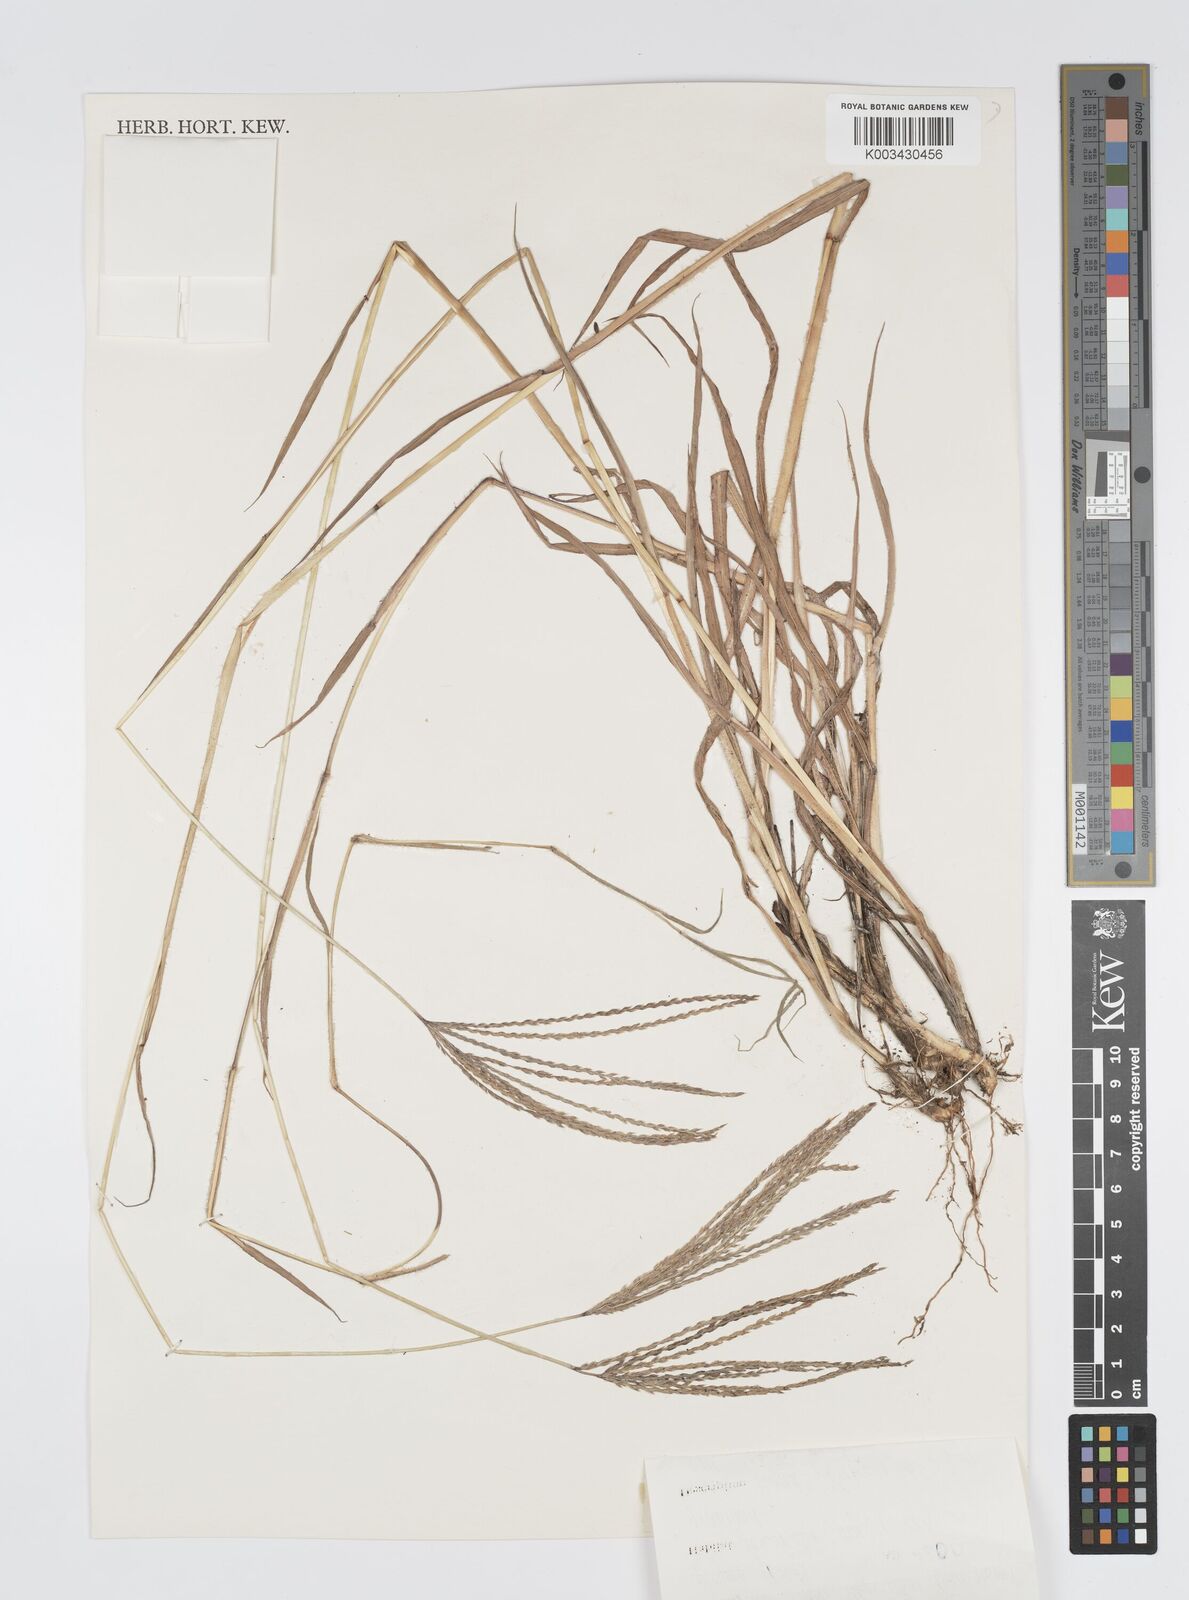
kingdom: Plantae
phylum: Tracheophyta
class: Liliopsida
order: Poales
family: Poaceae
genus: Digitaria
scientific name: Digitaria milanjiana
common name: Madagascar crabgrass
